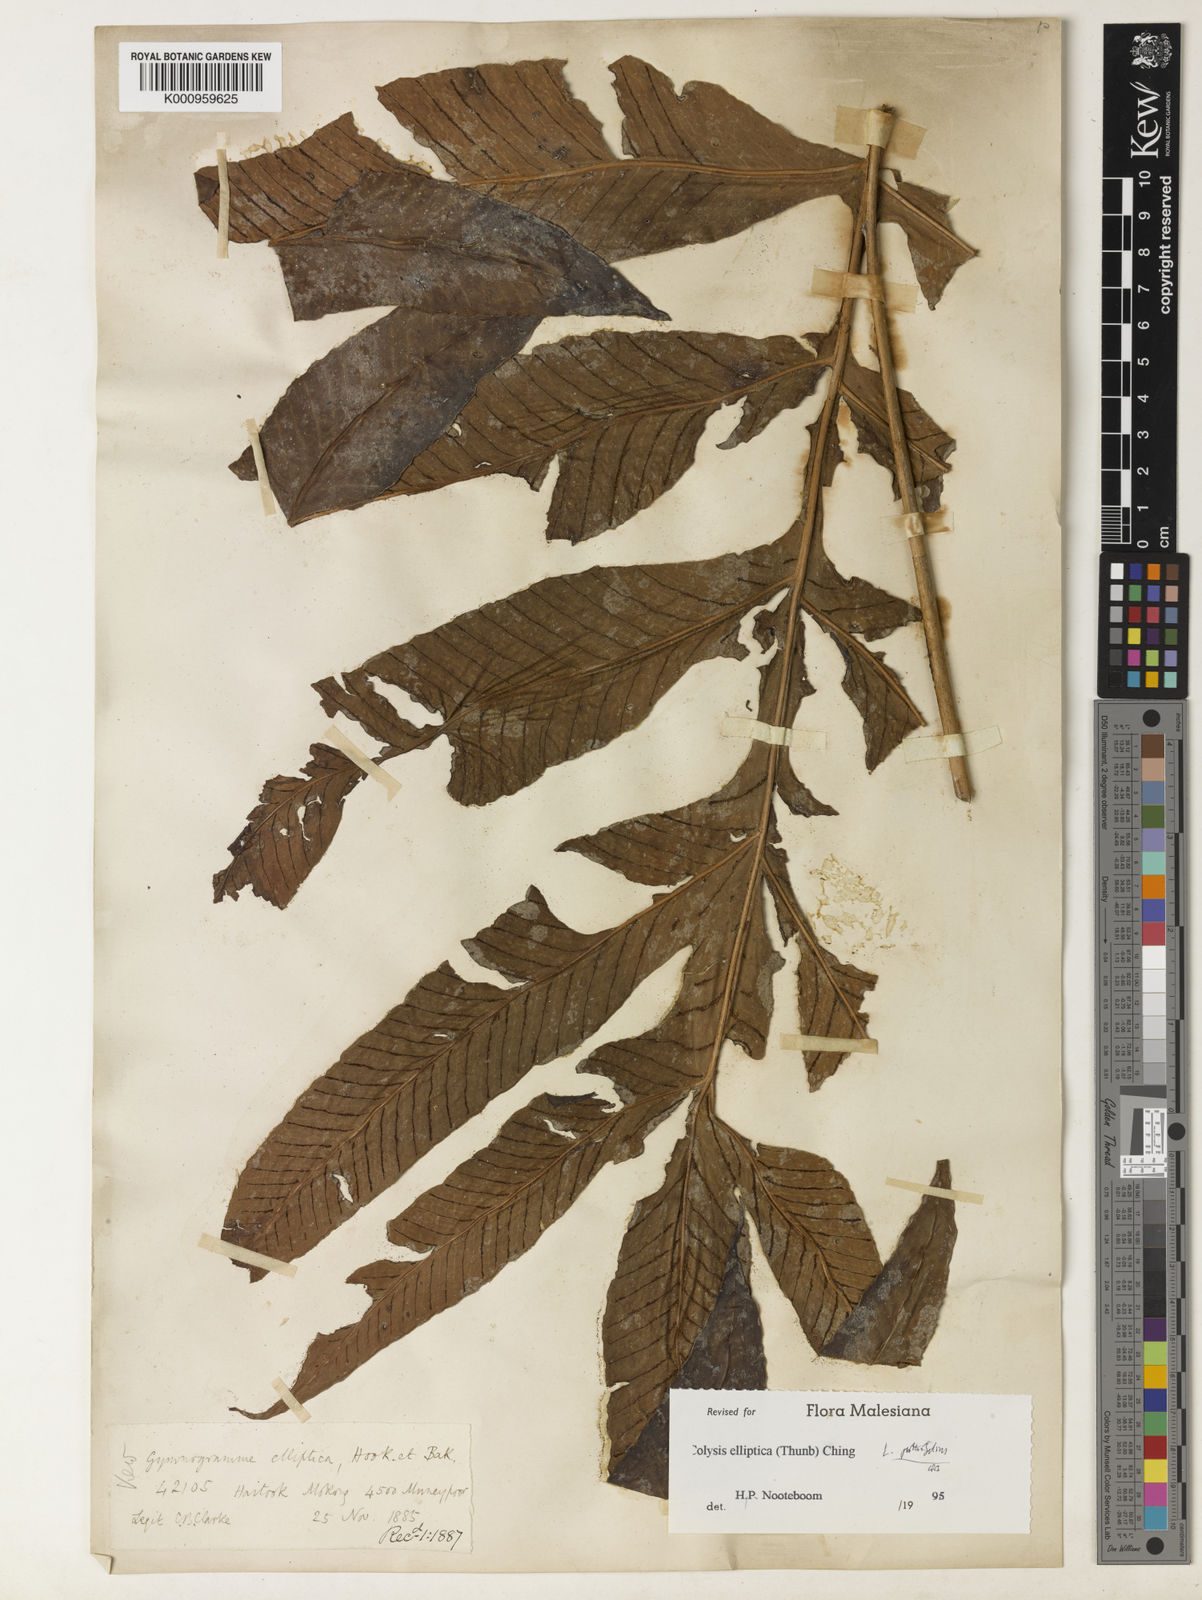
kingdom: Plantae
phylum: Tracheophyta
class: Polypodiopsida
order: Polypodiales
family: Polypodiaceae
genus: Leptochilus
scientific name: Leptochilus pothifolius
